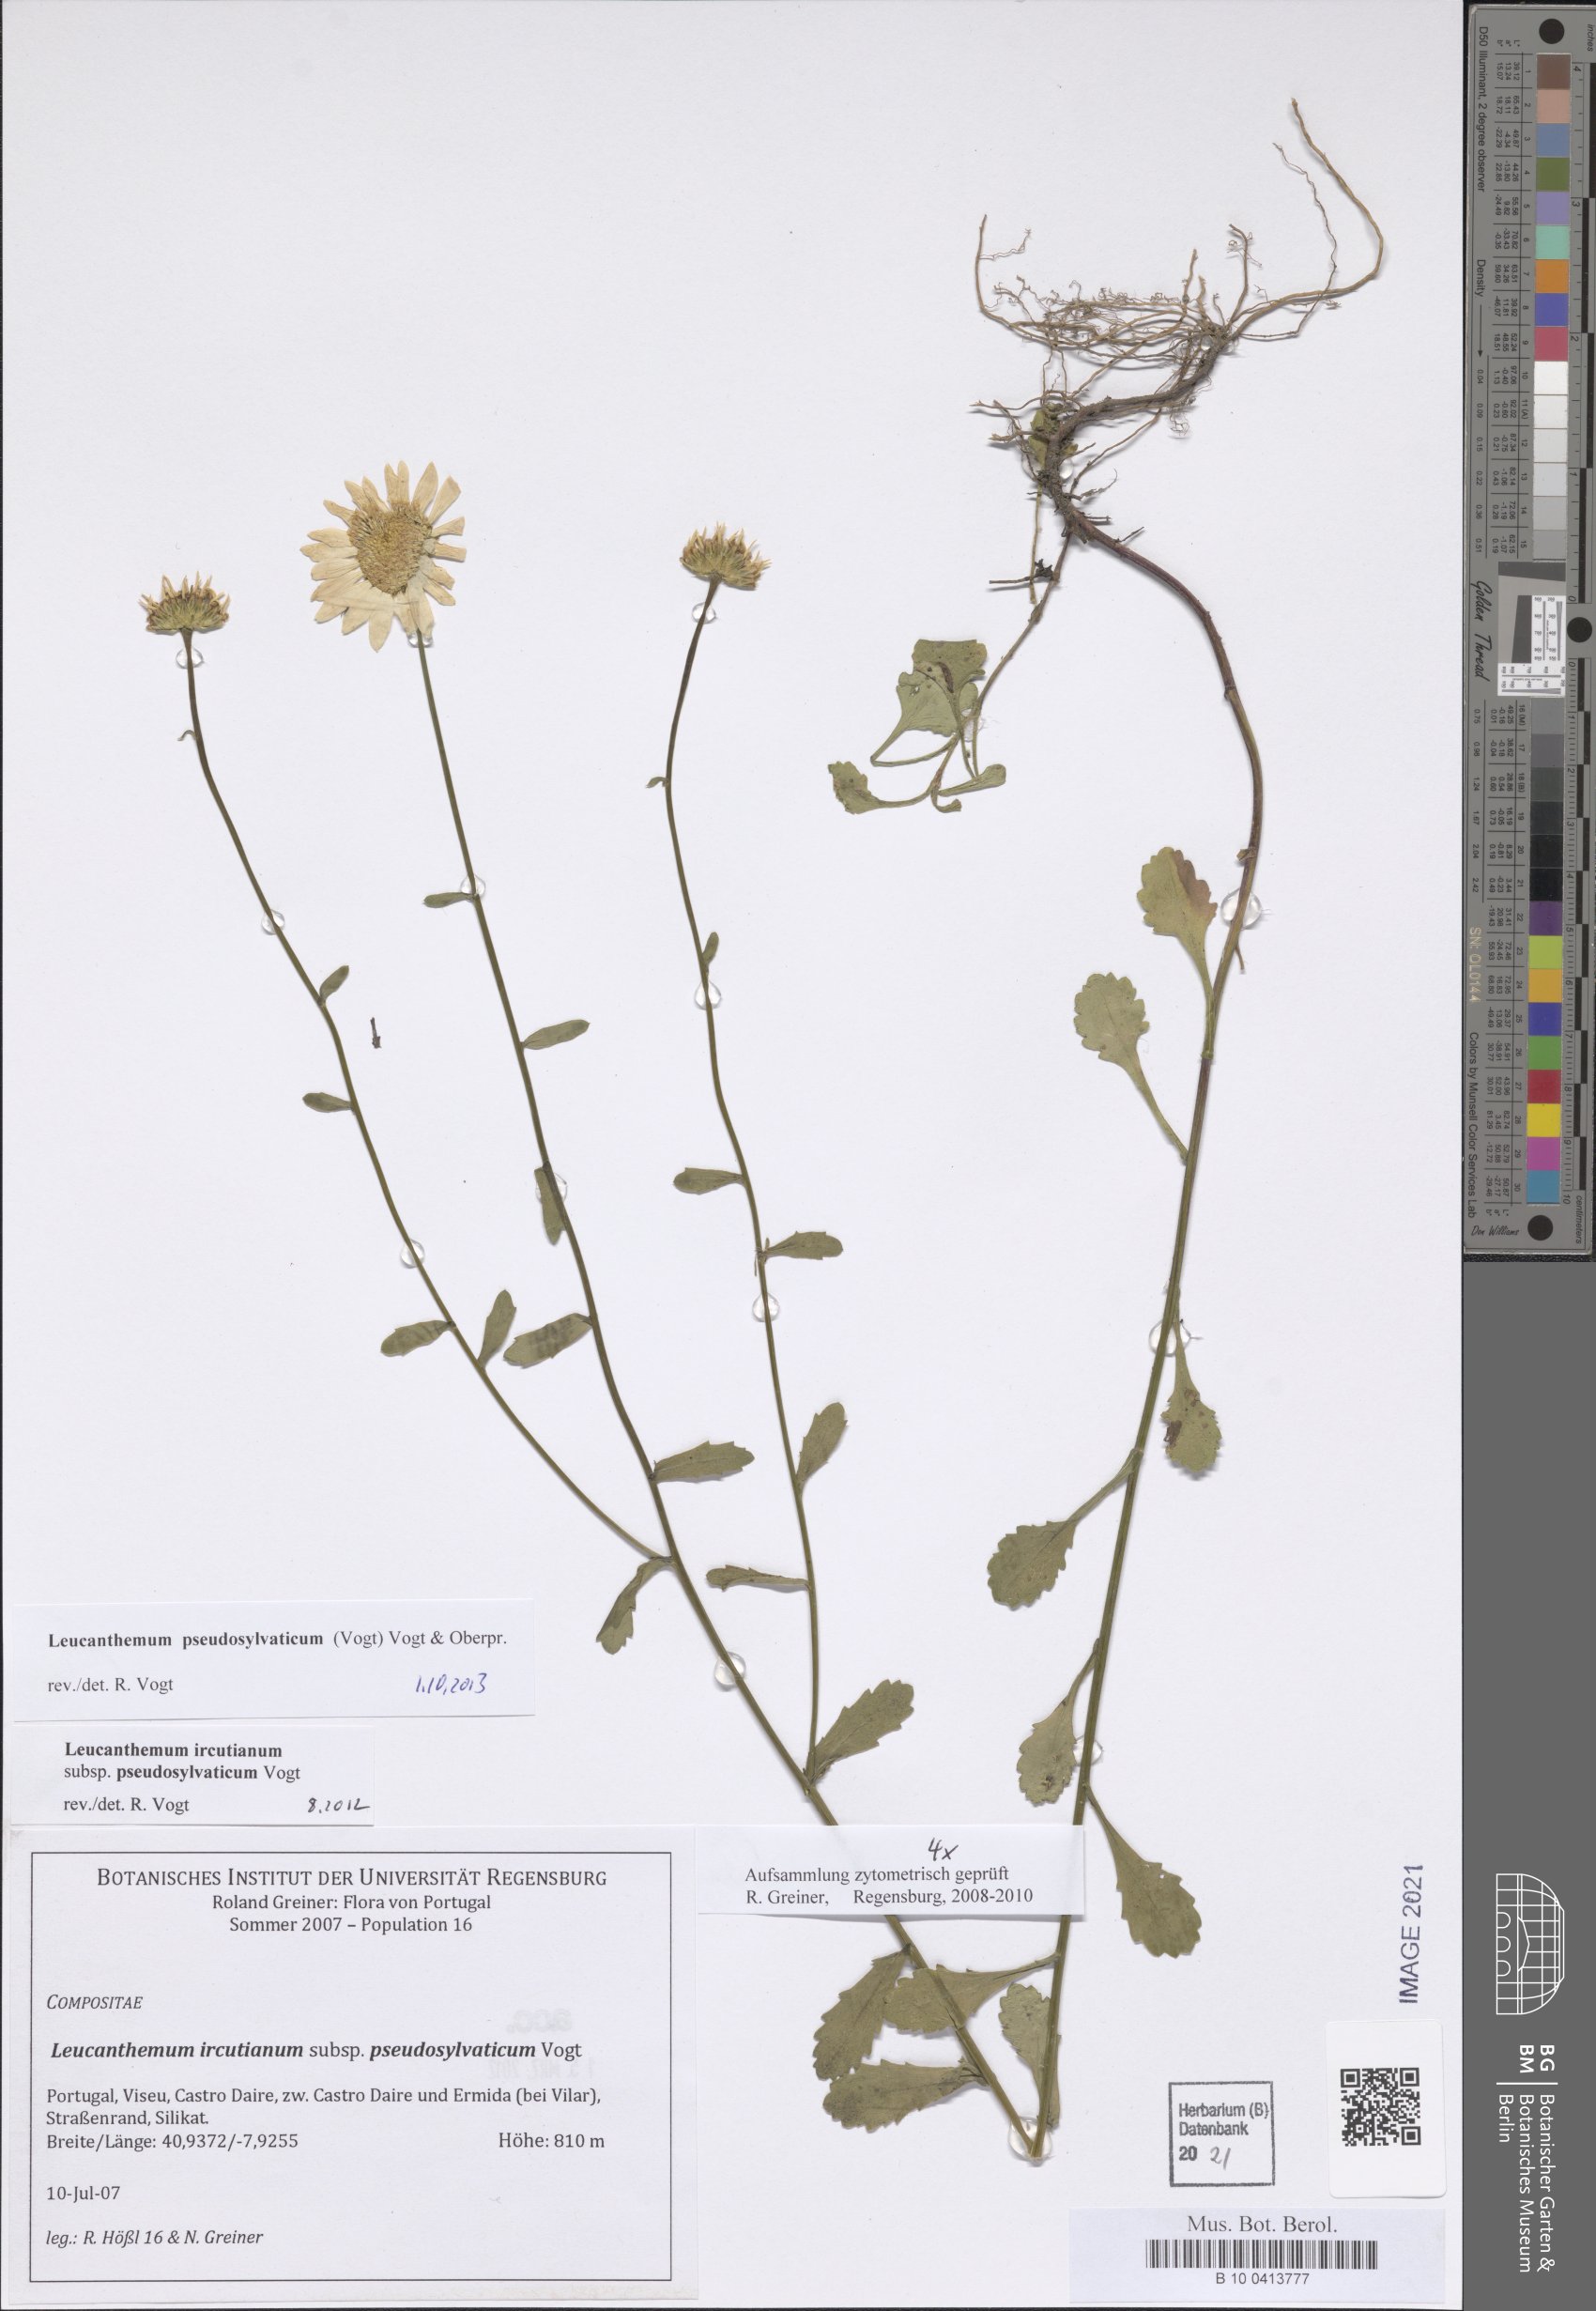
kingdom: Plantae
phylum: Tracheophyta
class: Magnoliopsida
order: Asterales
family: Asteraceae
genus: Leucanthemum
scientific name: Leucanthemum pseudosylvaticum
